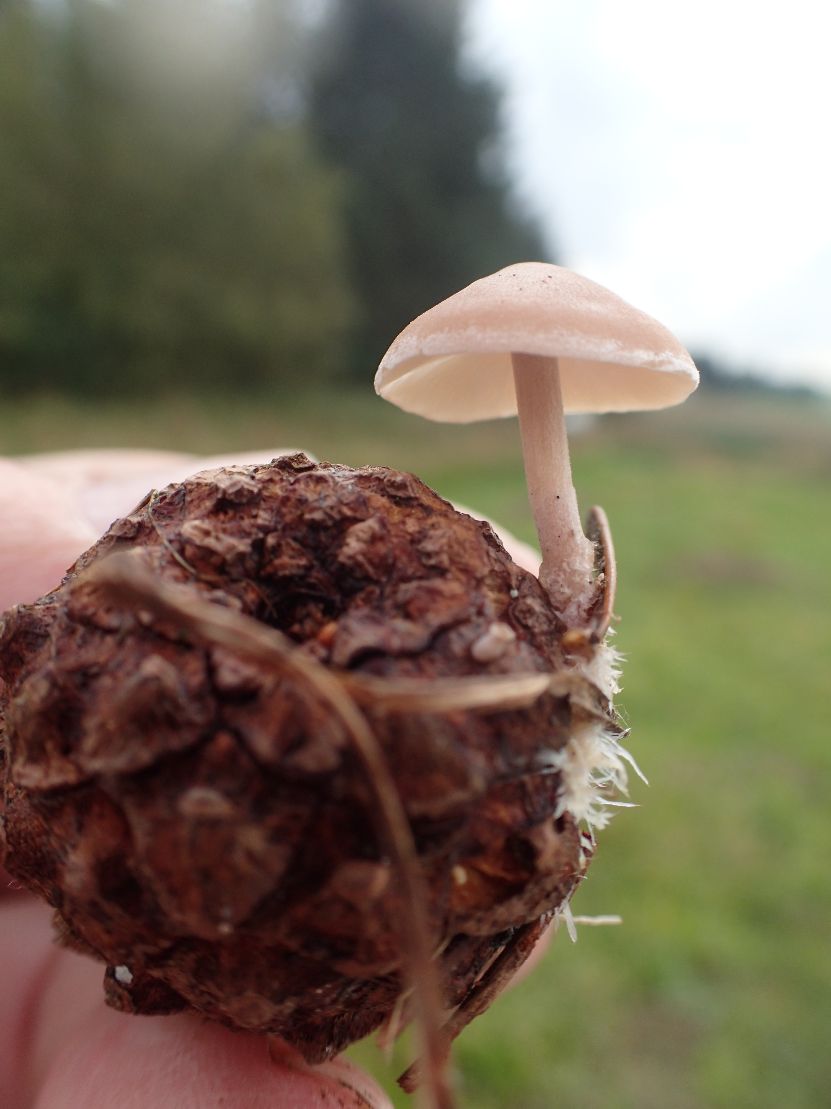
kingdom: Fungi
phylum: Basidiomycota
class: Agaricomycetes
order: Agaricales
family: Marasmiaceae
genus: Baeospora
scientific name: Baeospora myosura
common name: koglebruskhat
